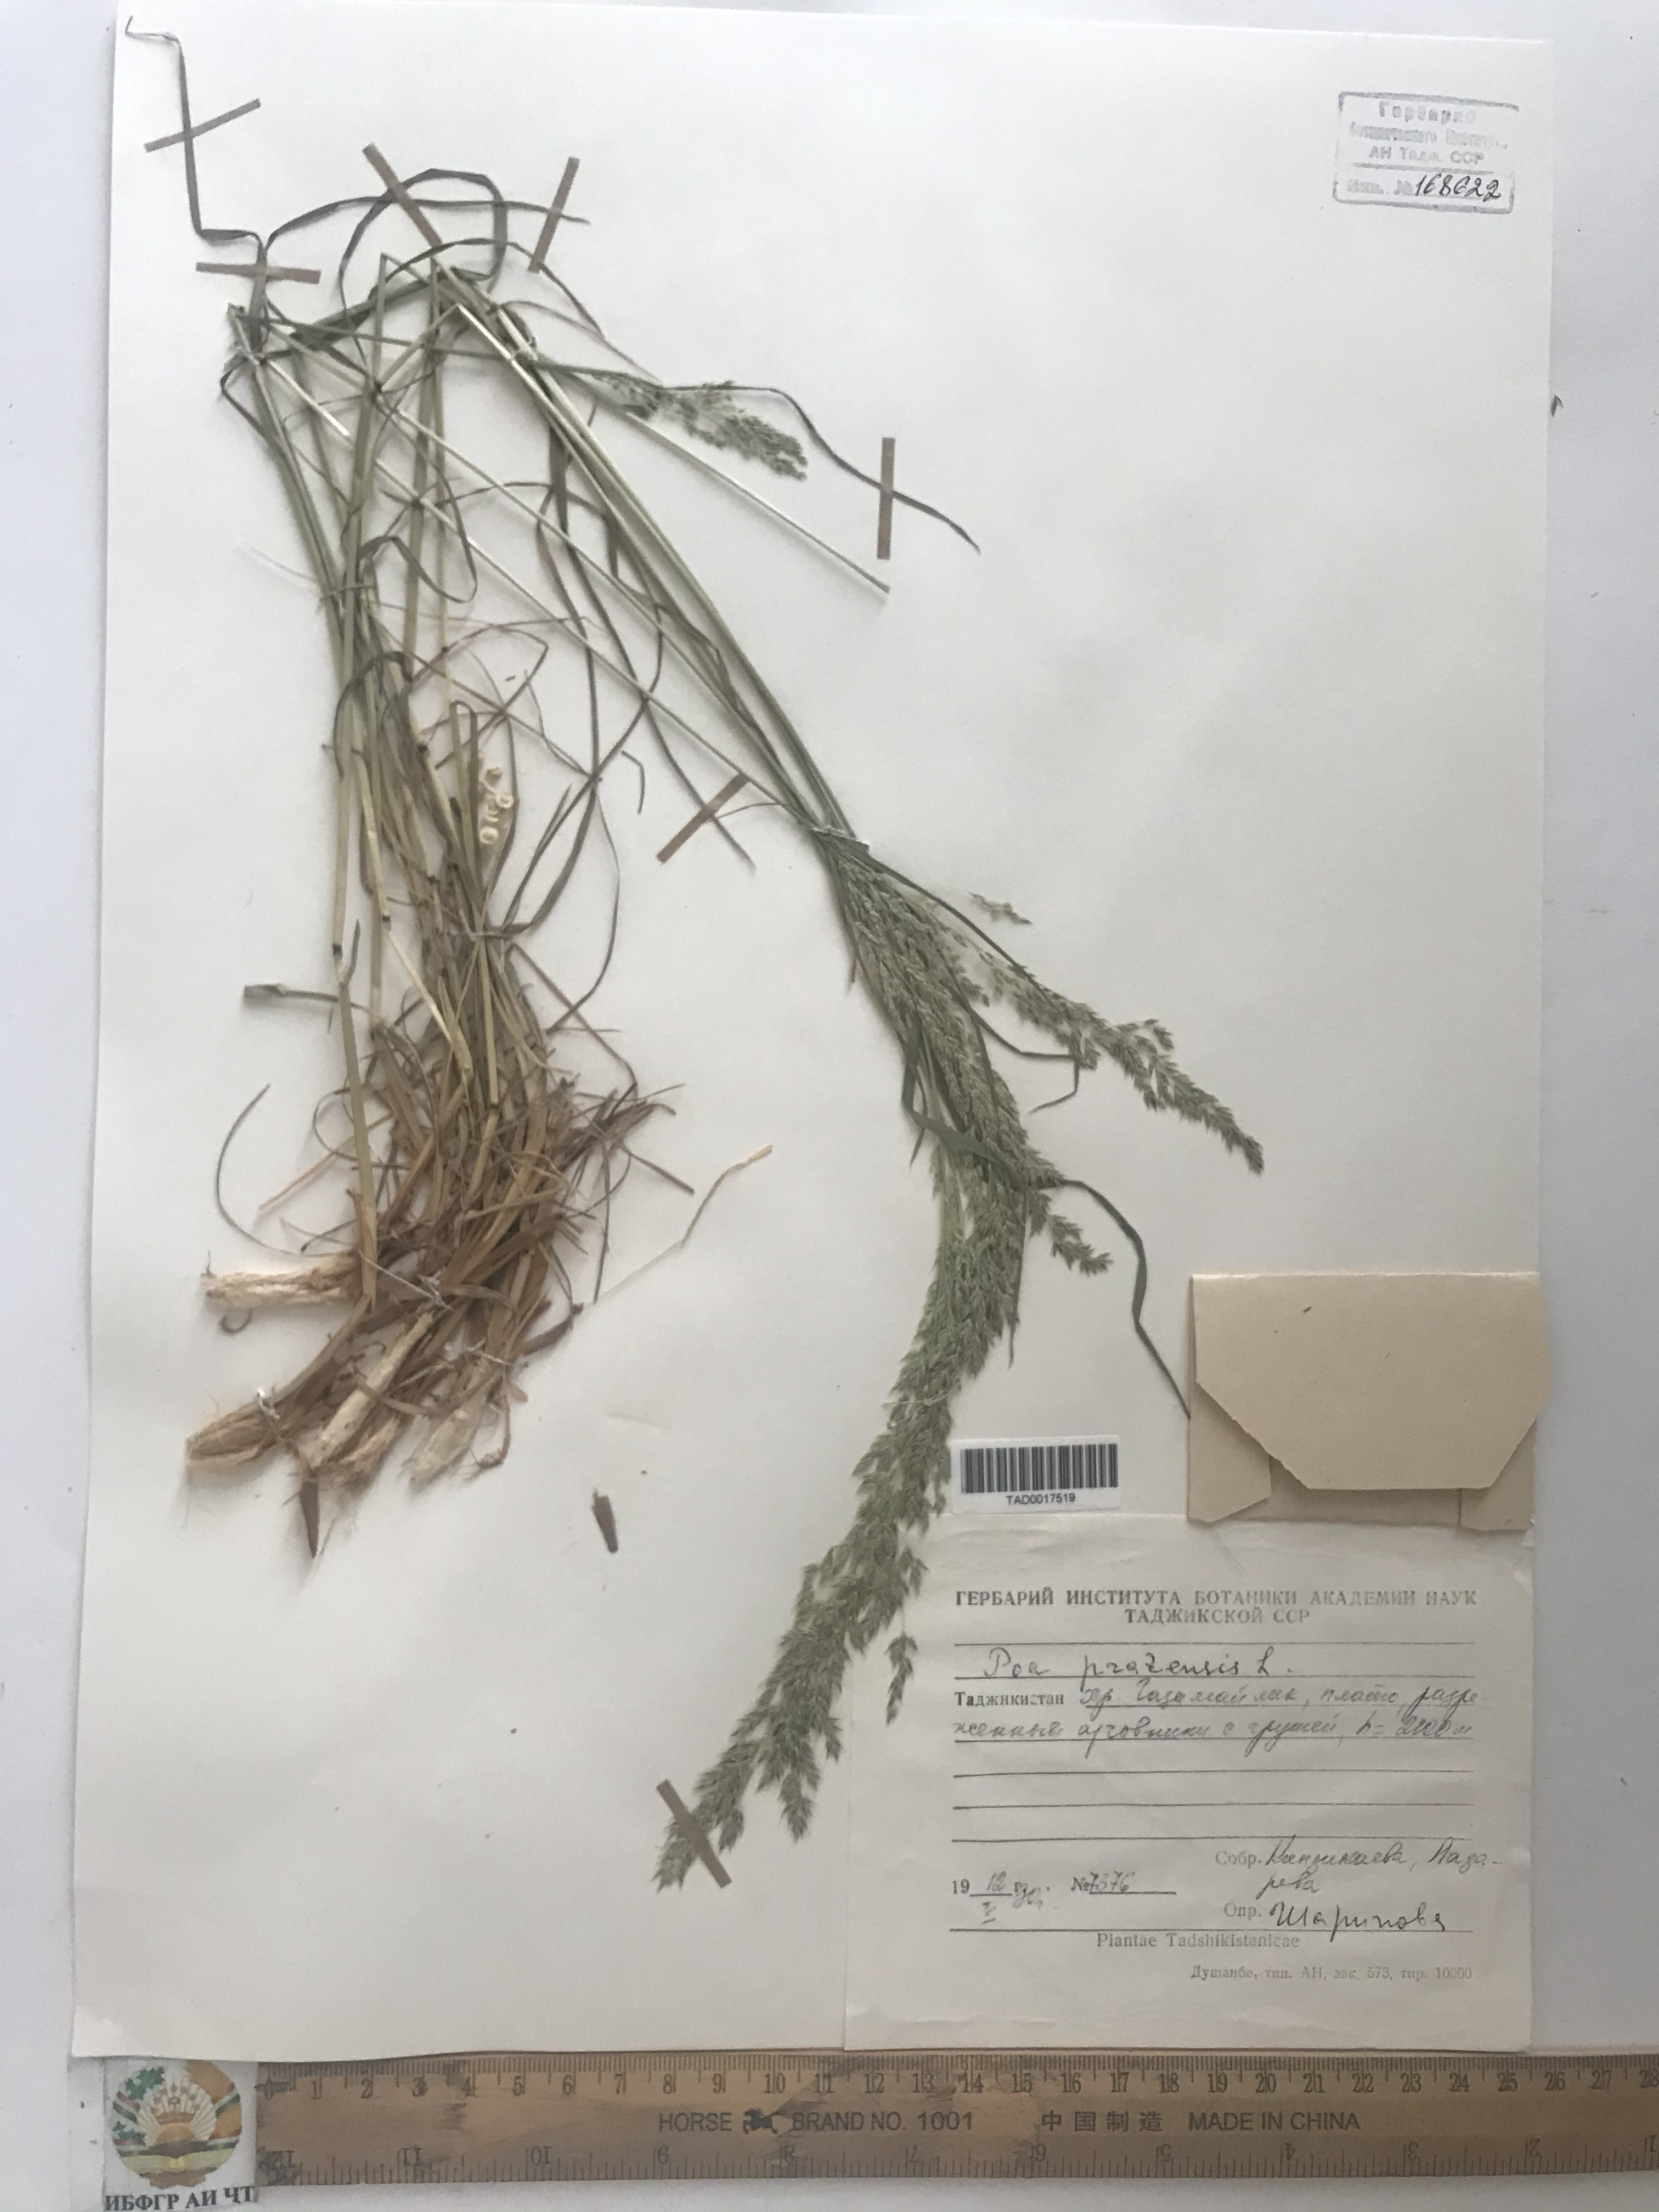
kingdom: Plantae
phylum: Tracheophyta
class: Liliopsida
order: Poales
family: Poaceae
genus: Poa
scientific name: Poa pratensis
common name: Kentucky bluegrass
